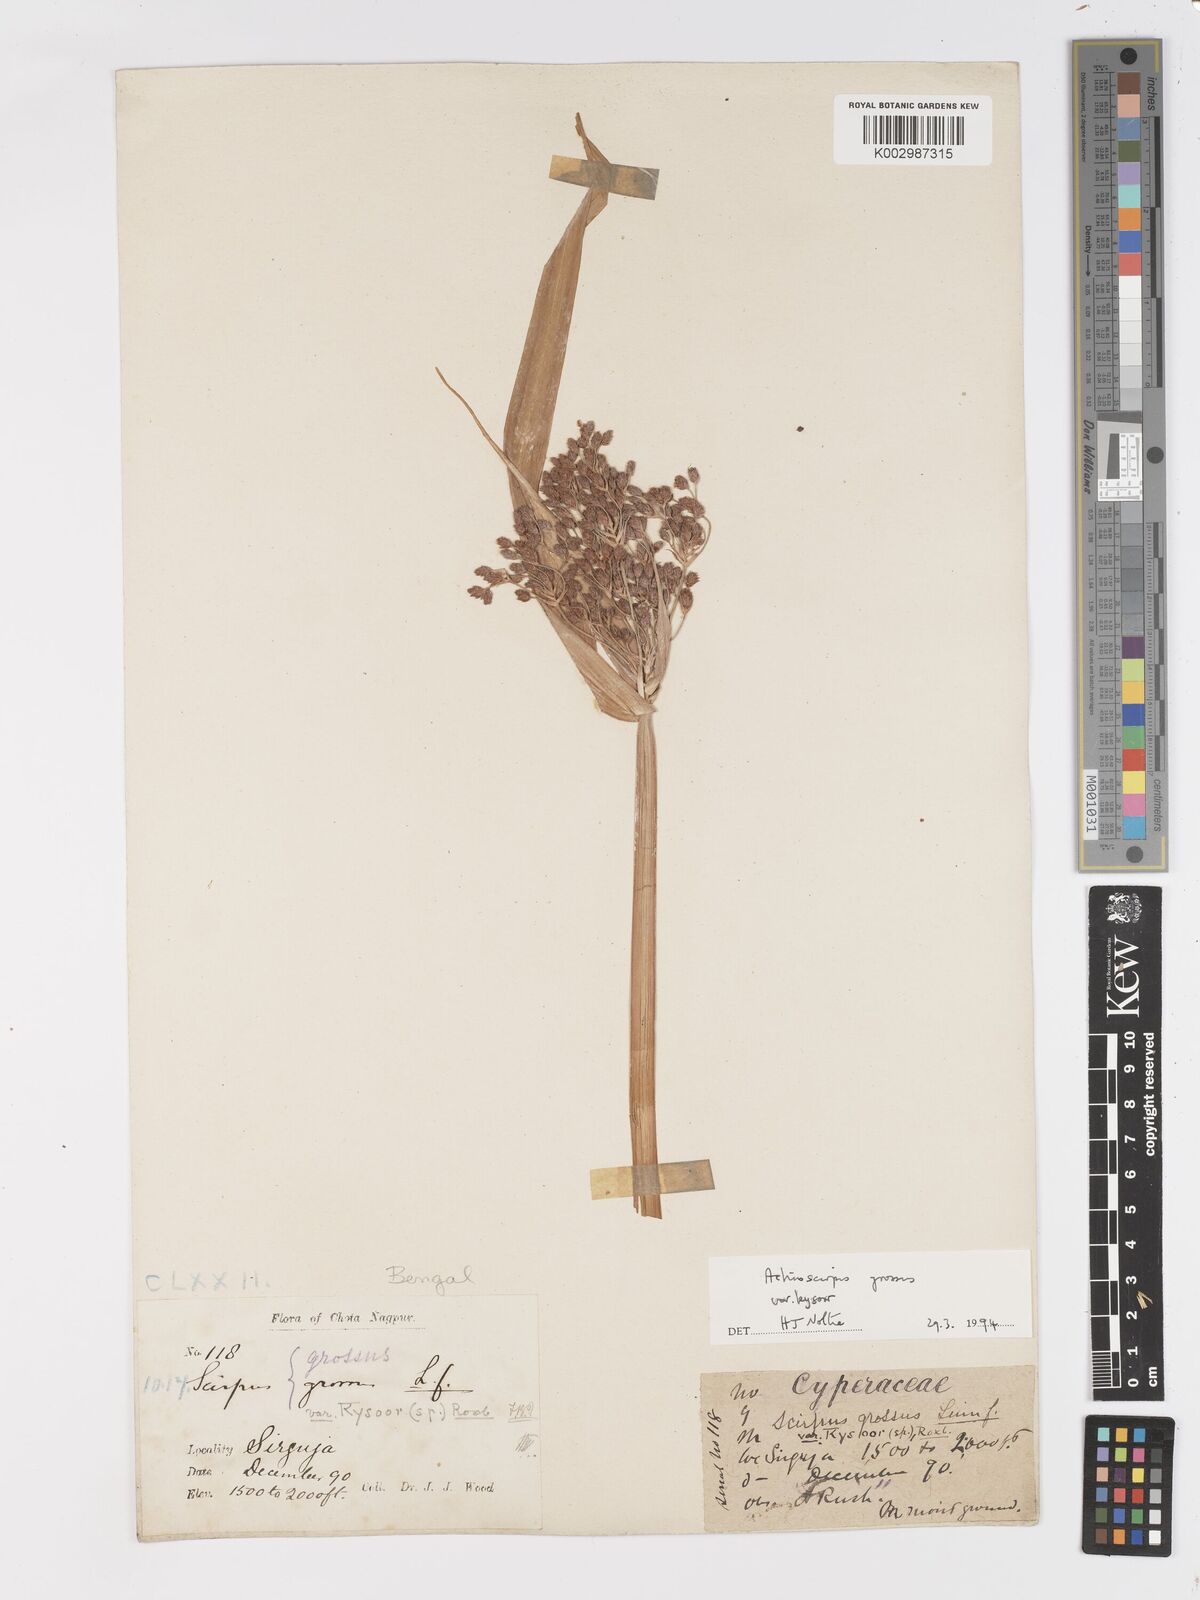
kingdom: Plantae
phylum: Tracheophyta
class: Liliopsida
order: Poales
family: Cyperaceae
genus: Actinoscirpus
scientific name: Actinoscirpus grossus
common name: Giant bur rush
